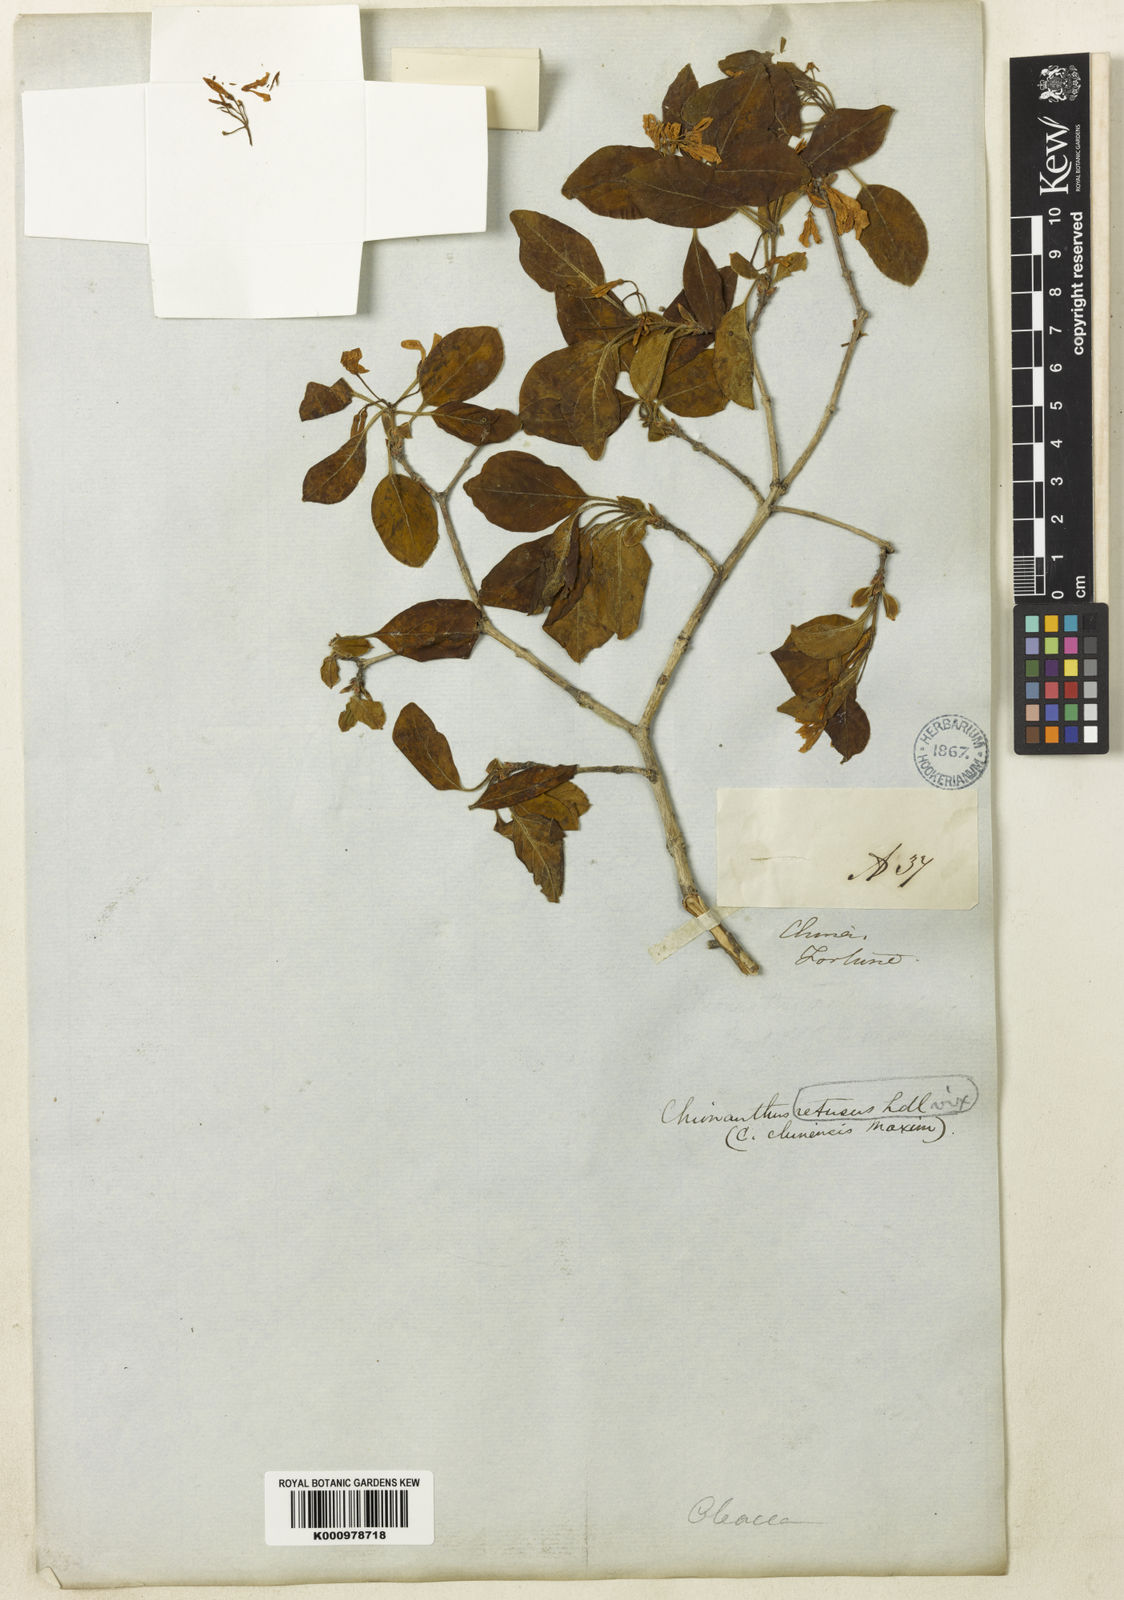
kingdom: Plantae
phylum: Tracheophyta
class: Magnoliopsida
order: Lamiales
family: Oleaceae
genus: Chionanthus
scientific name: Chionanthus retusus
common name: Chinese fringetree
